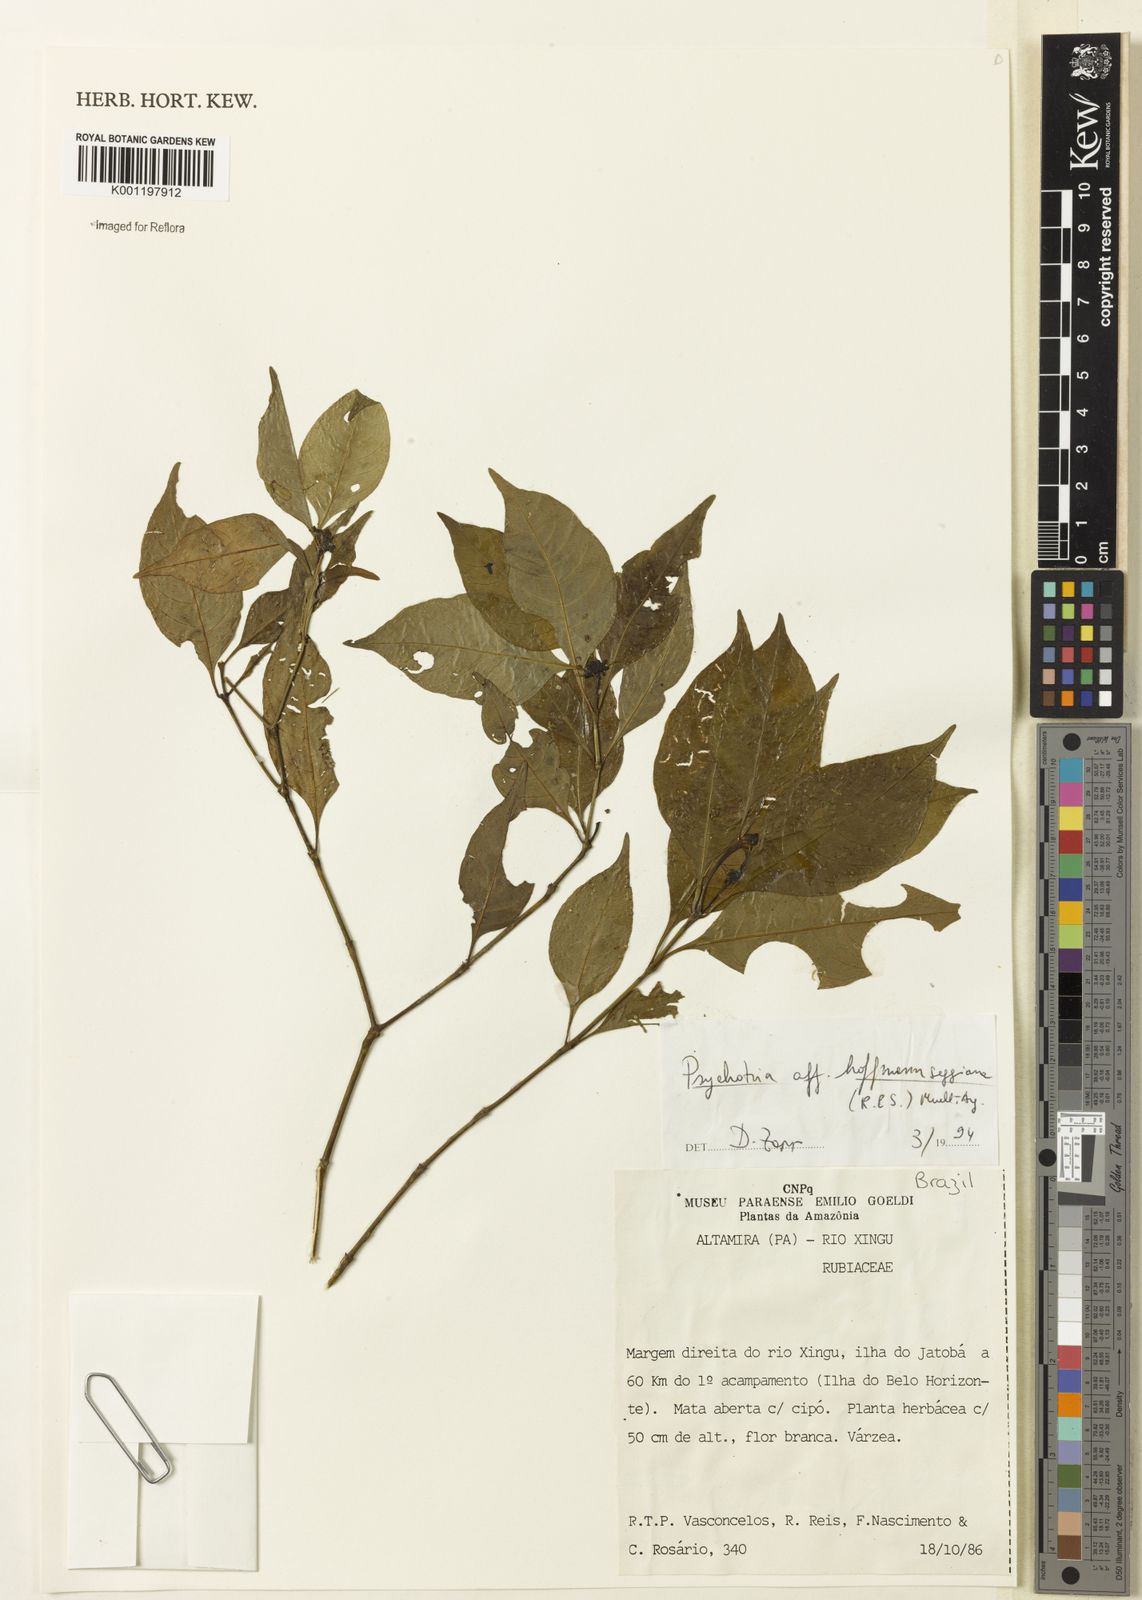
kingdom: Plantae
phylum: Tracheophyta
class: Magnoliopsida
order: Gentianales
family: Rubiaceae
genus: Psychotria
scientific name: Psychotria
